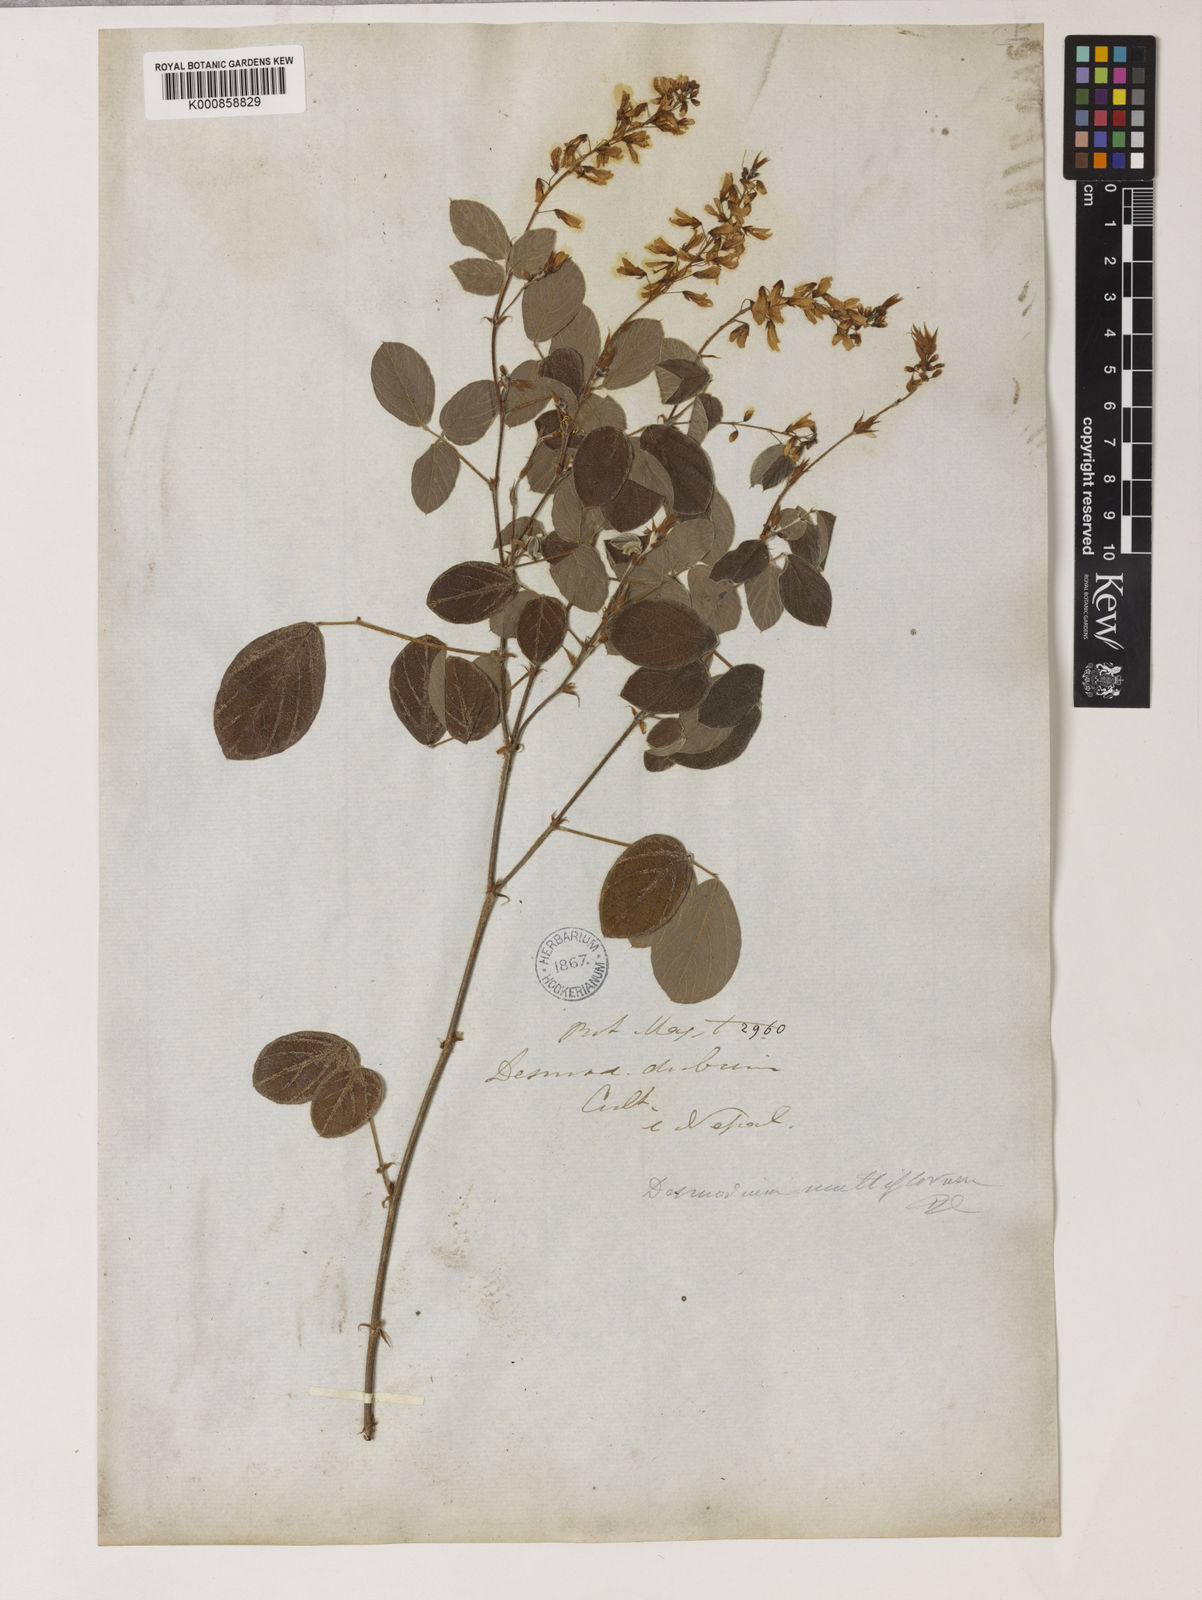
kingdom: Plantae
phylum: Tracheophyta
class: Magnoliopsida
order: Fabales
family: Fabaceae
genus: Ototropis
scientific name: Ototropis multiflora
